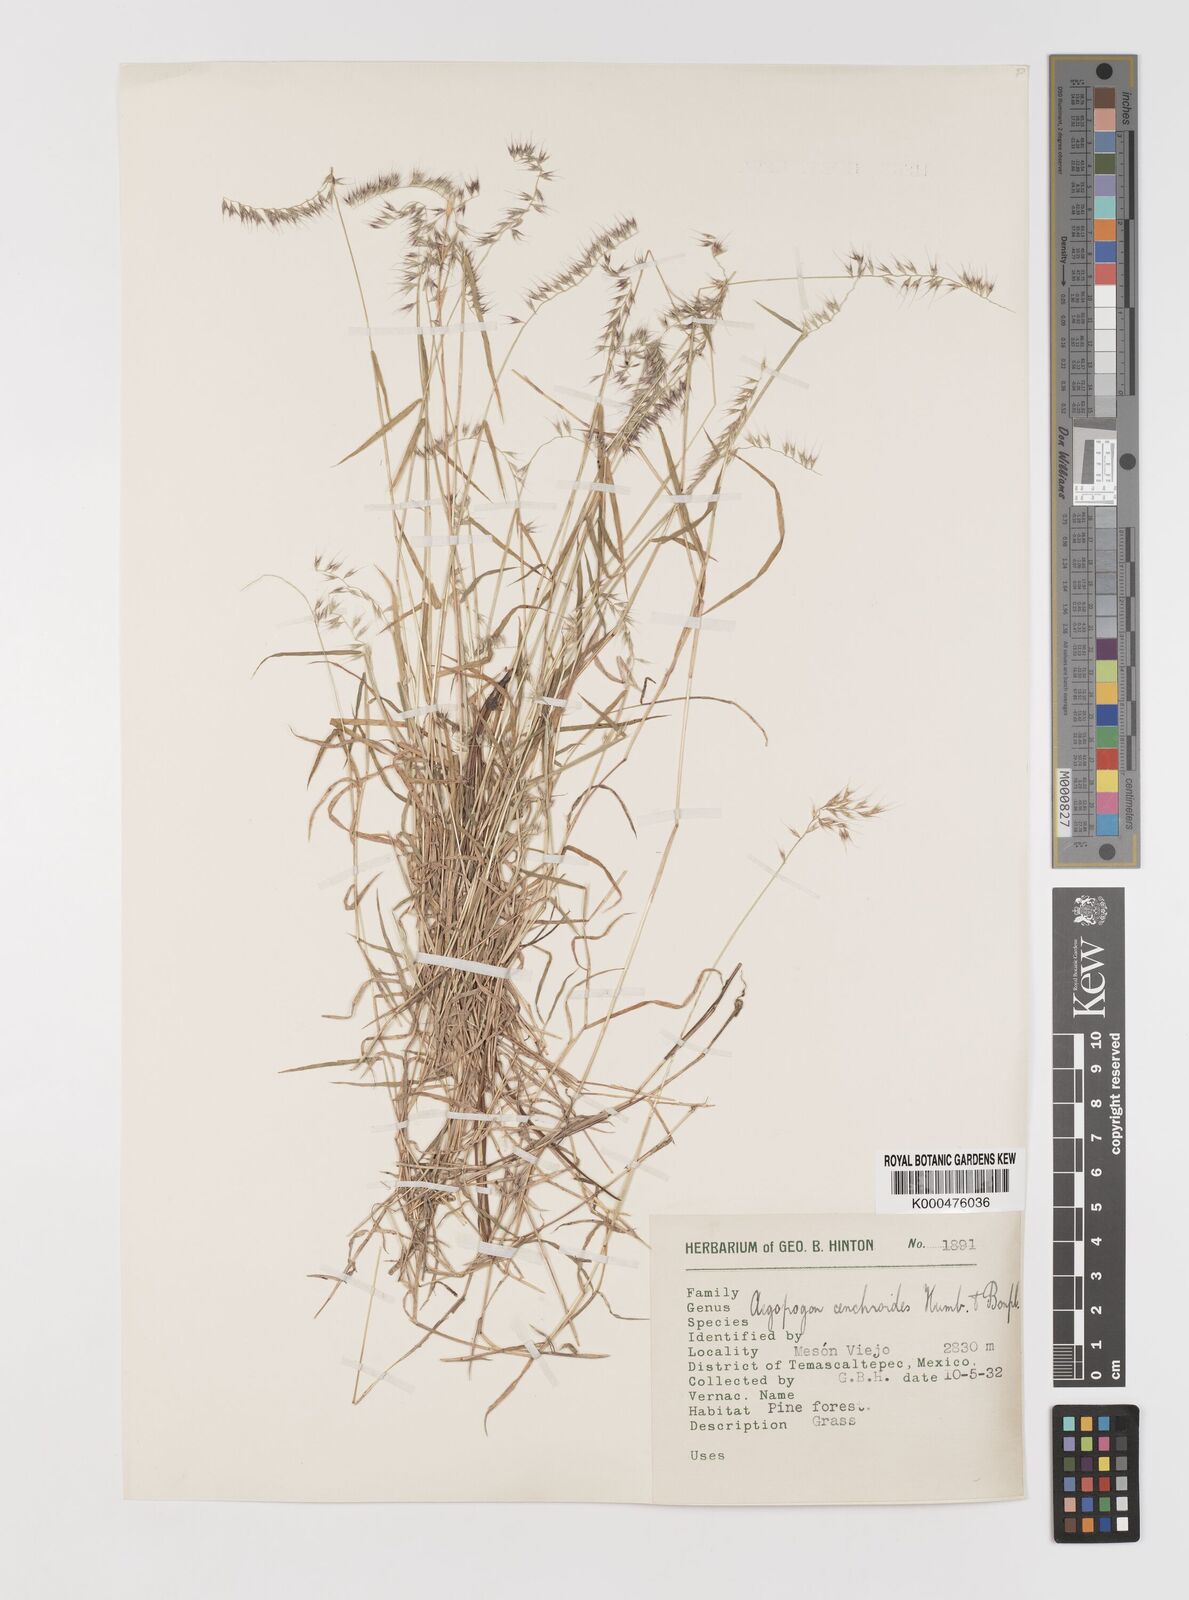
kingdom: Plantae
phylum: Tracheophyta
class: Liliopsida
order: Poales
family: Poaceae
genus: Muhlenbergia
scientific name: Muhlenbergia cenchroides
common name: Relaxgrass
